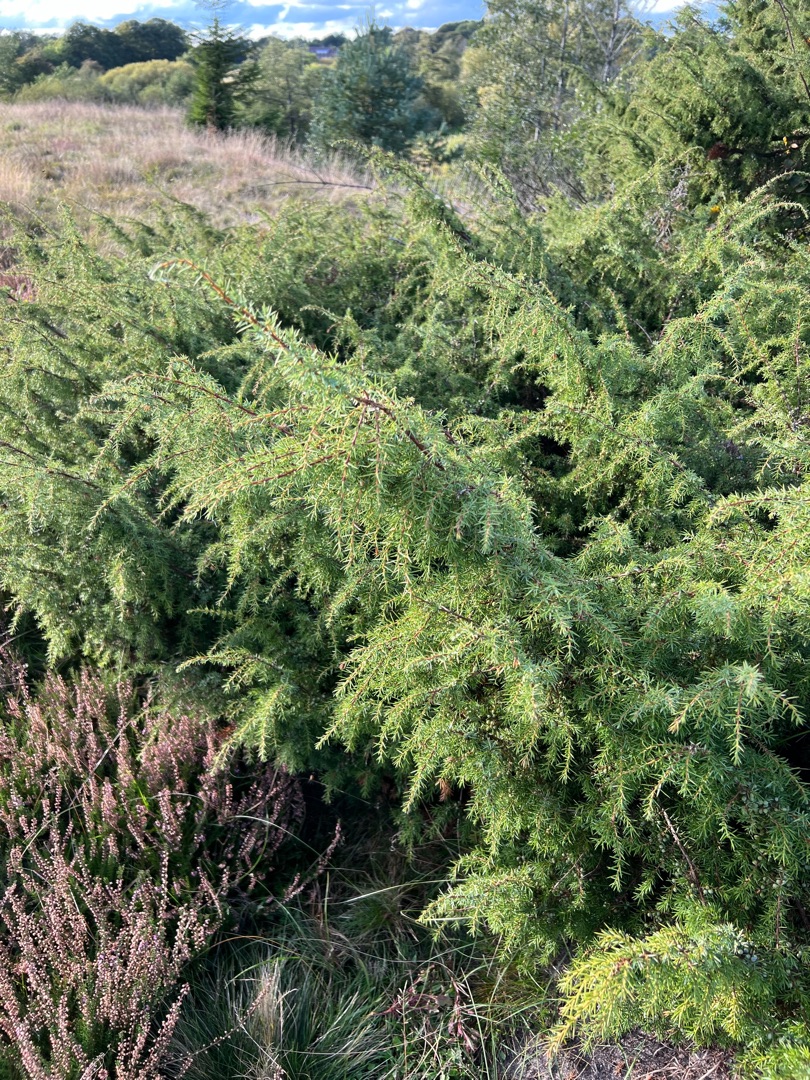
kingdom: Plantae
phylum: Tracheophyta
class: Pinopsida
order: Pinales
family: Cupressaceae
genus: Juniperus
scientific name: Juniperus communis
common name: Almindelig ene
